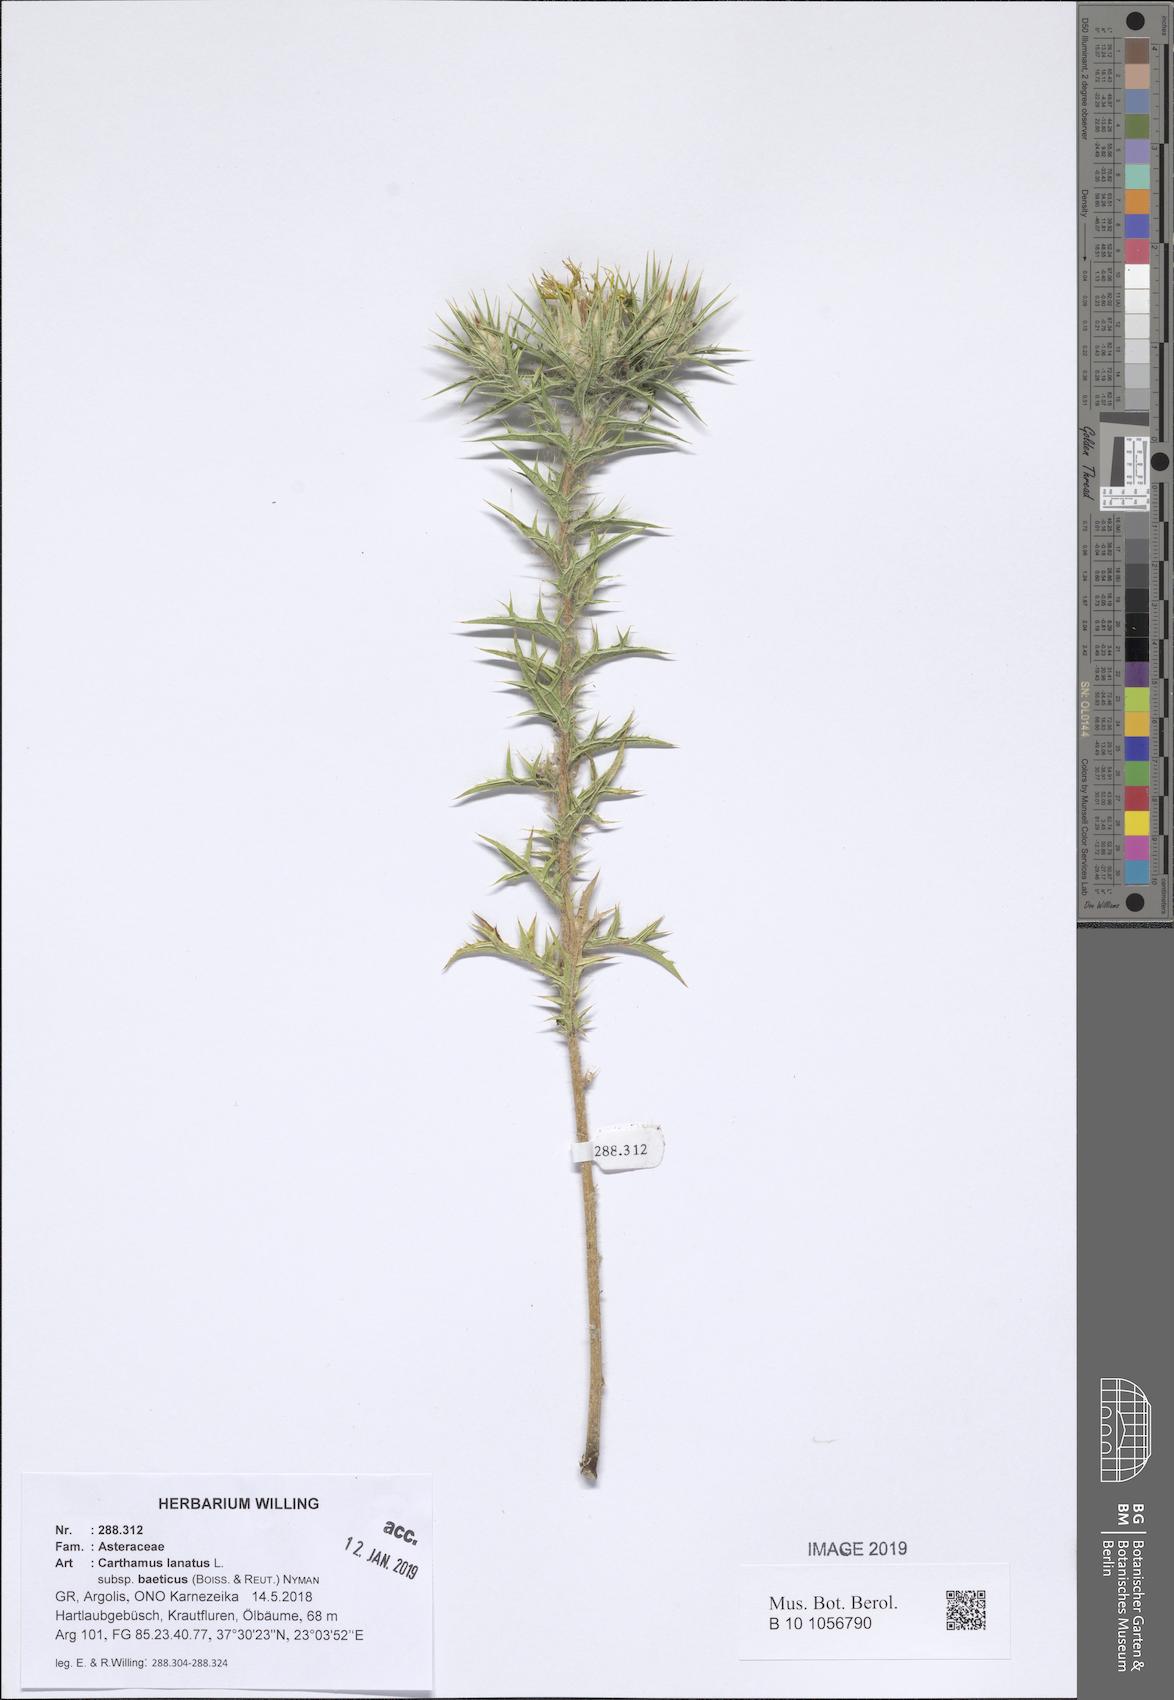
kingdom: Plantae
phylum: Tracheophyta
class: Magnoliopsida
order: Asterales
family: Asteraceae
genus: Carthamus
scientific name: Carthamus creticus
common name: Smooth distaff thistle
